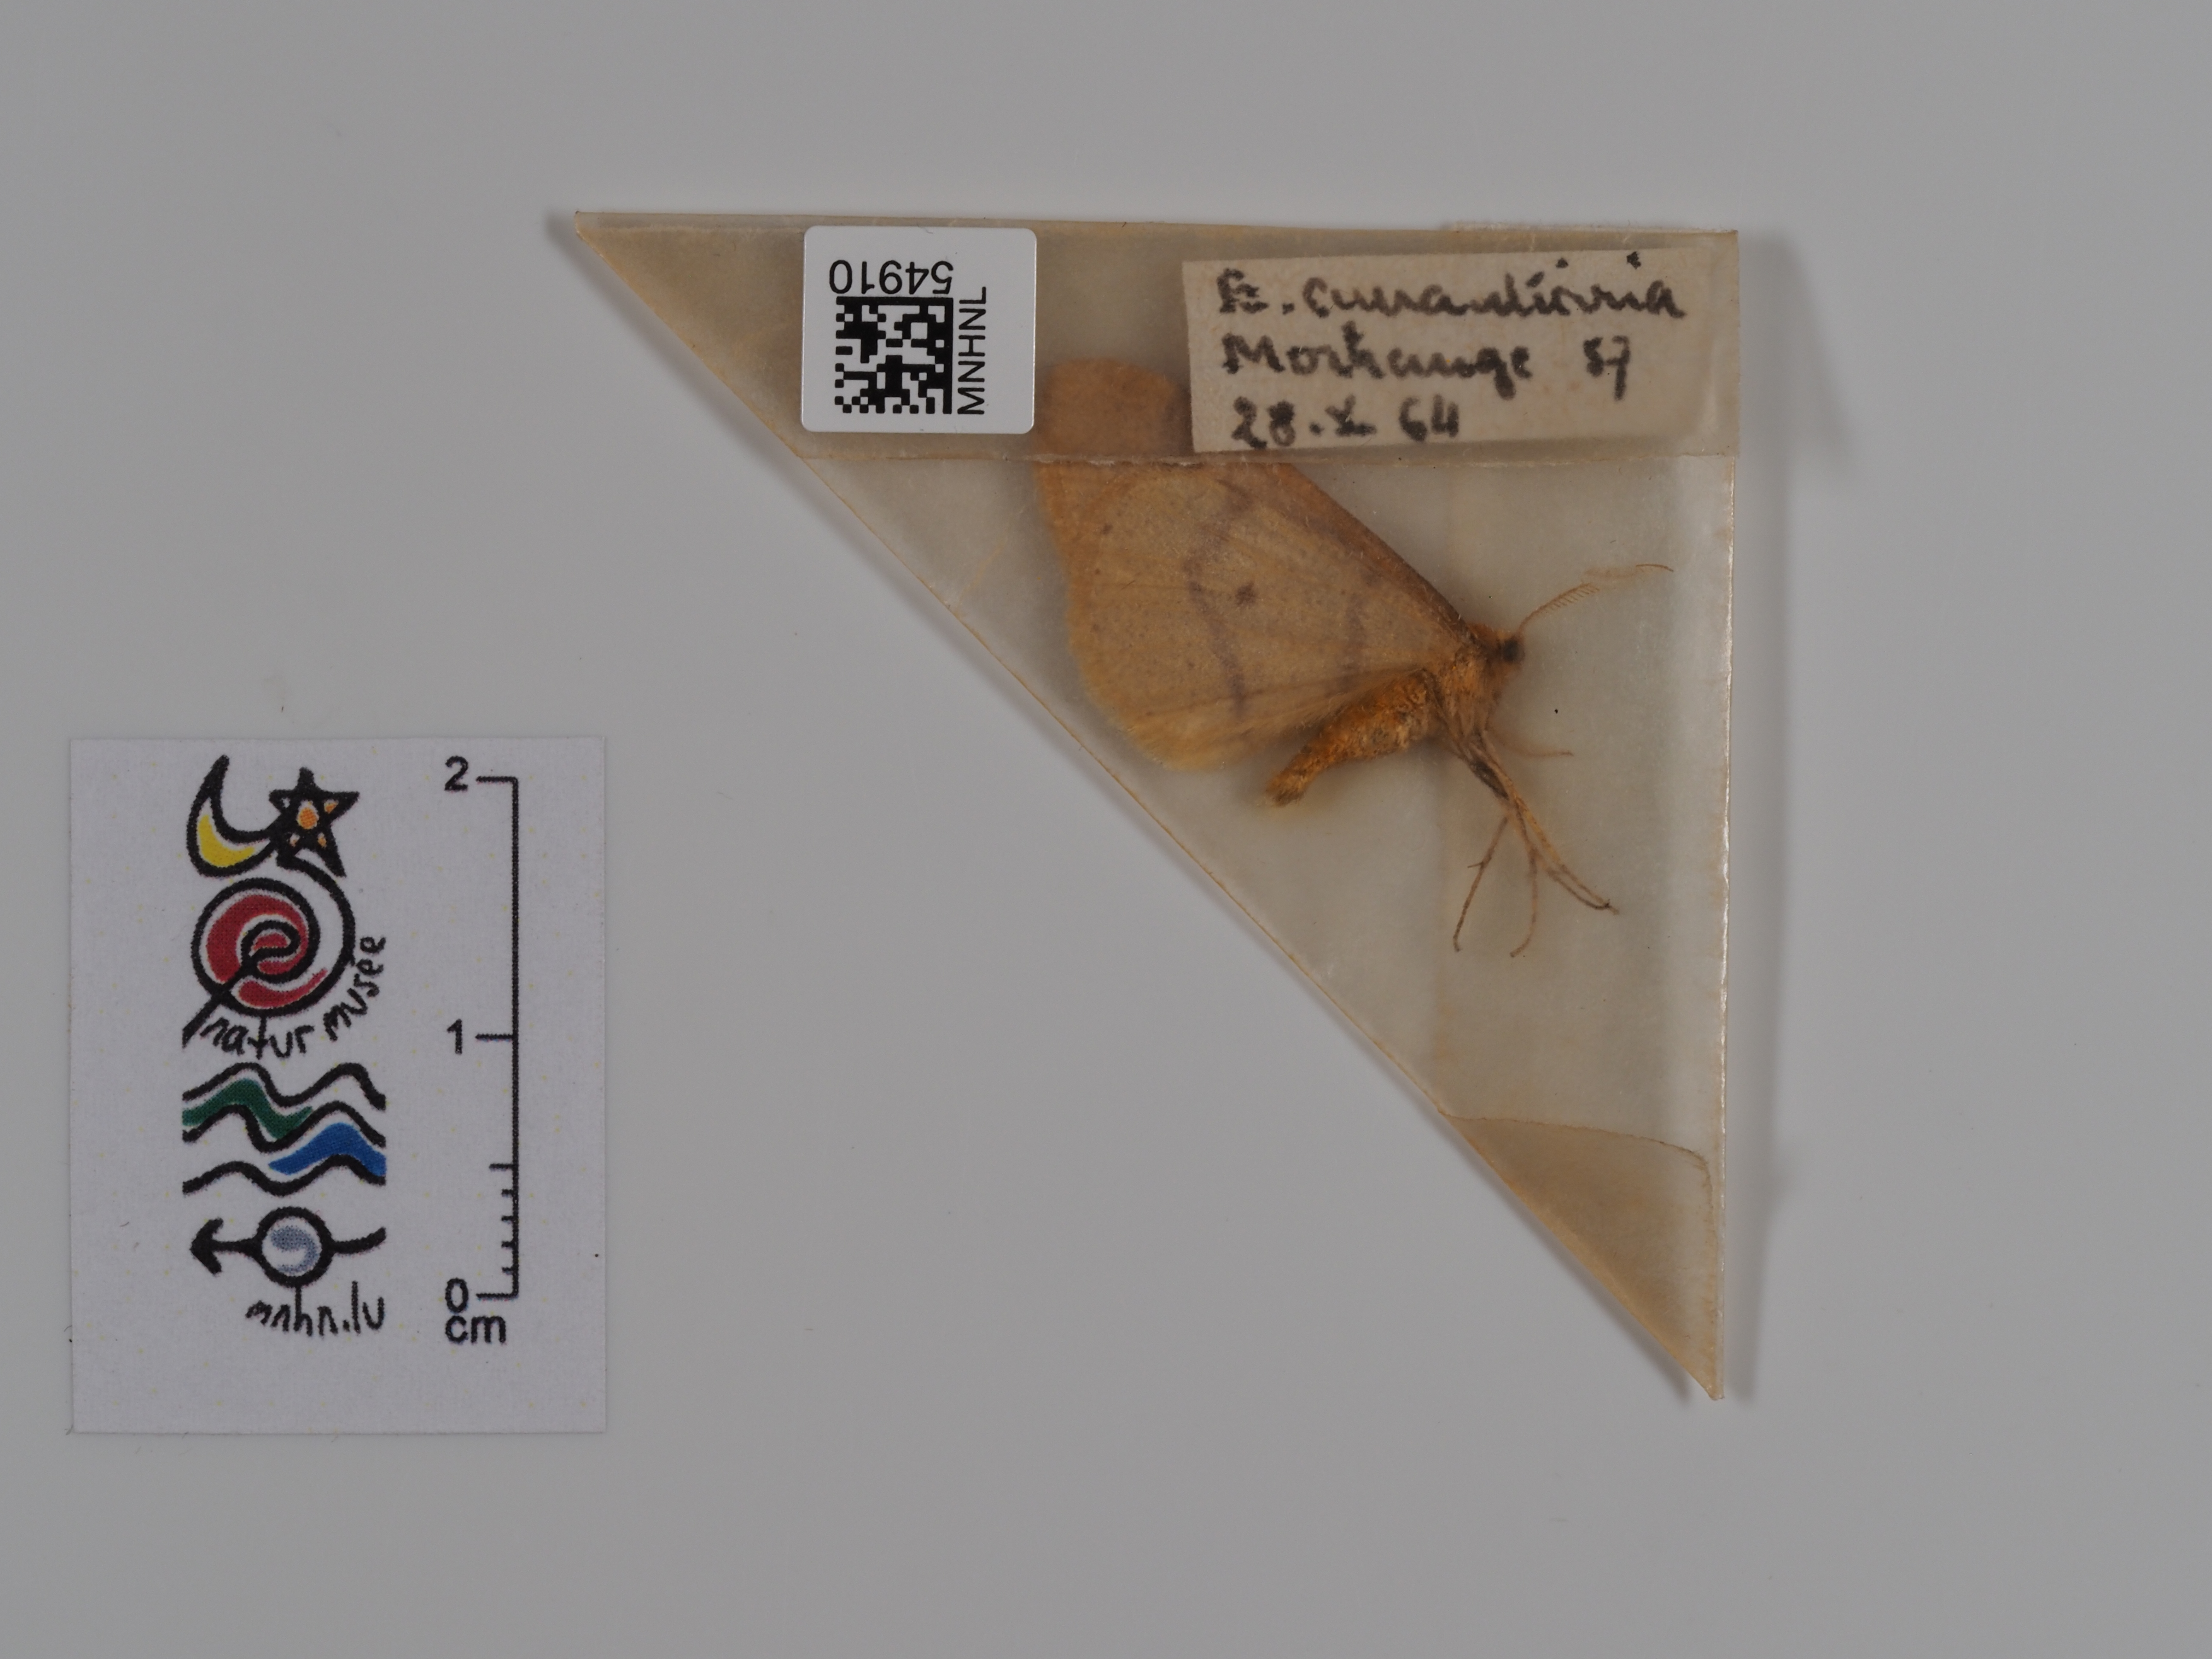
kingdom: Animalia
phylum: Arthropoda
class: Insecta
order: Lepidoptera
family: Geometridae
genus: Erannis
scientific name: Erannis
